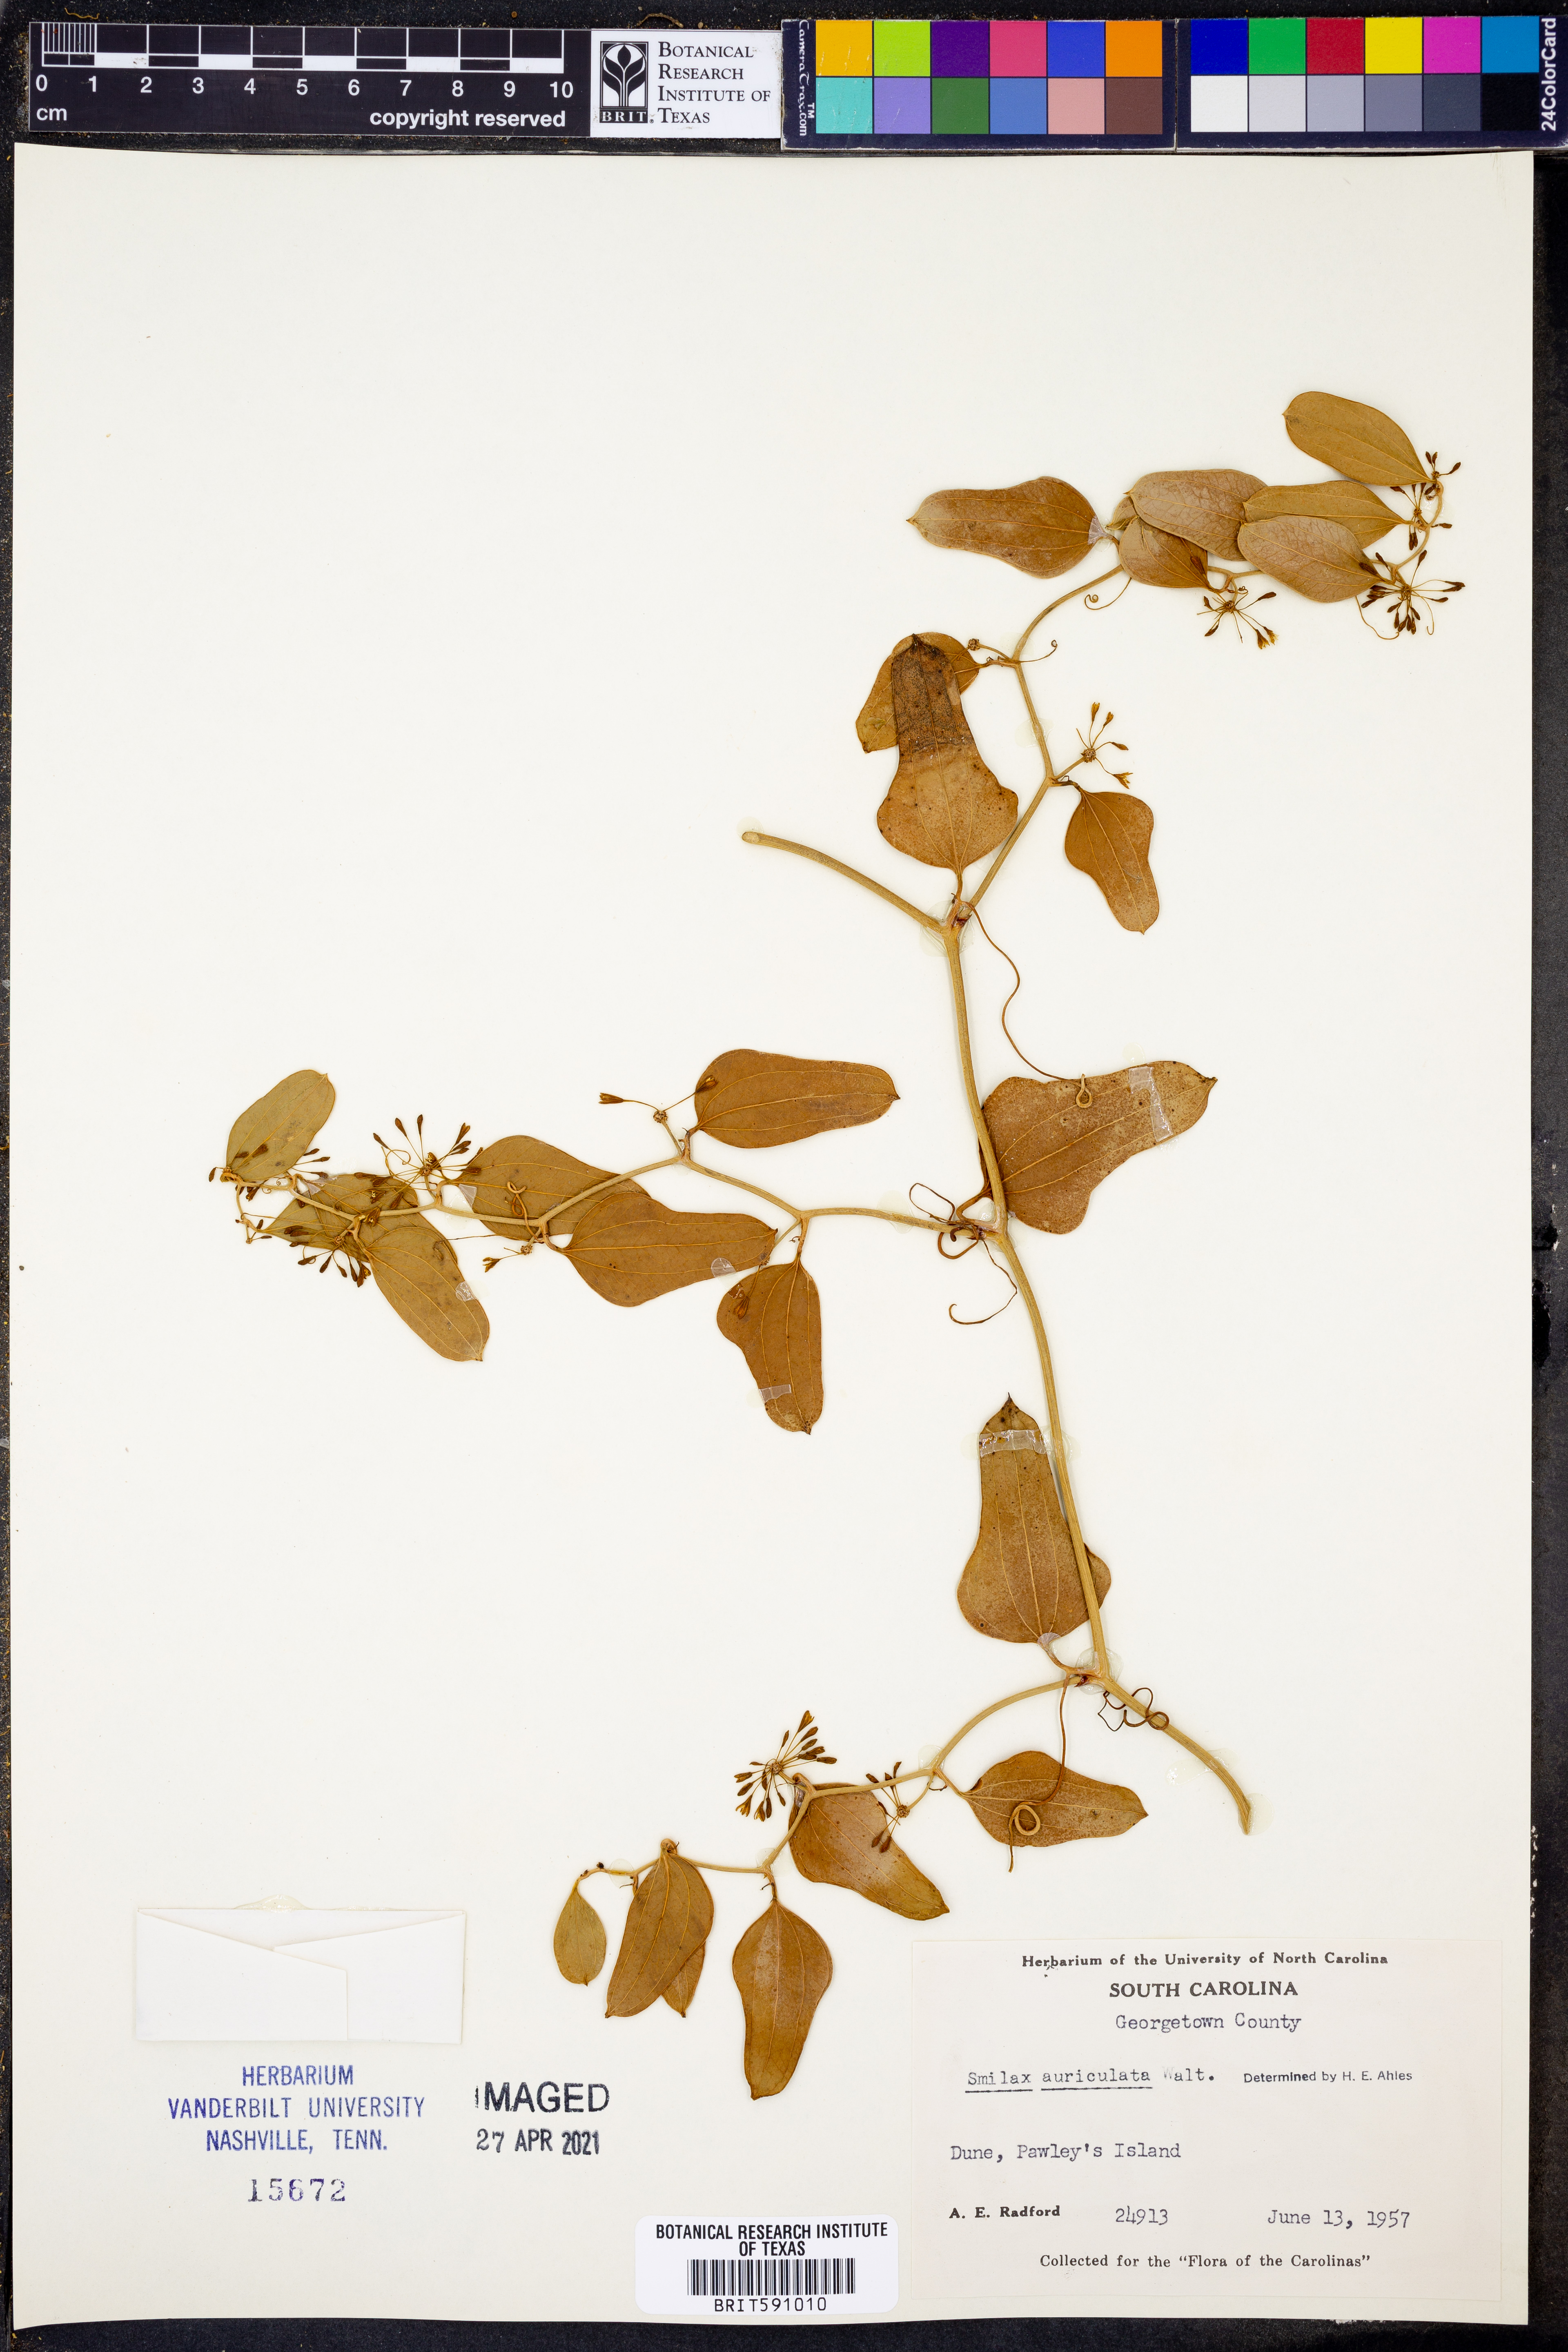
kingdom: Plantae
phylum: Tracheophyta
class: Liliopsida
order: Liliales
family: Smilacaceae
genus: Smilax
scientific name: Smilax auriculata
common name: Wild bamboo
